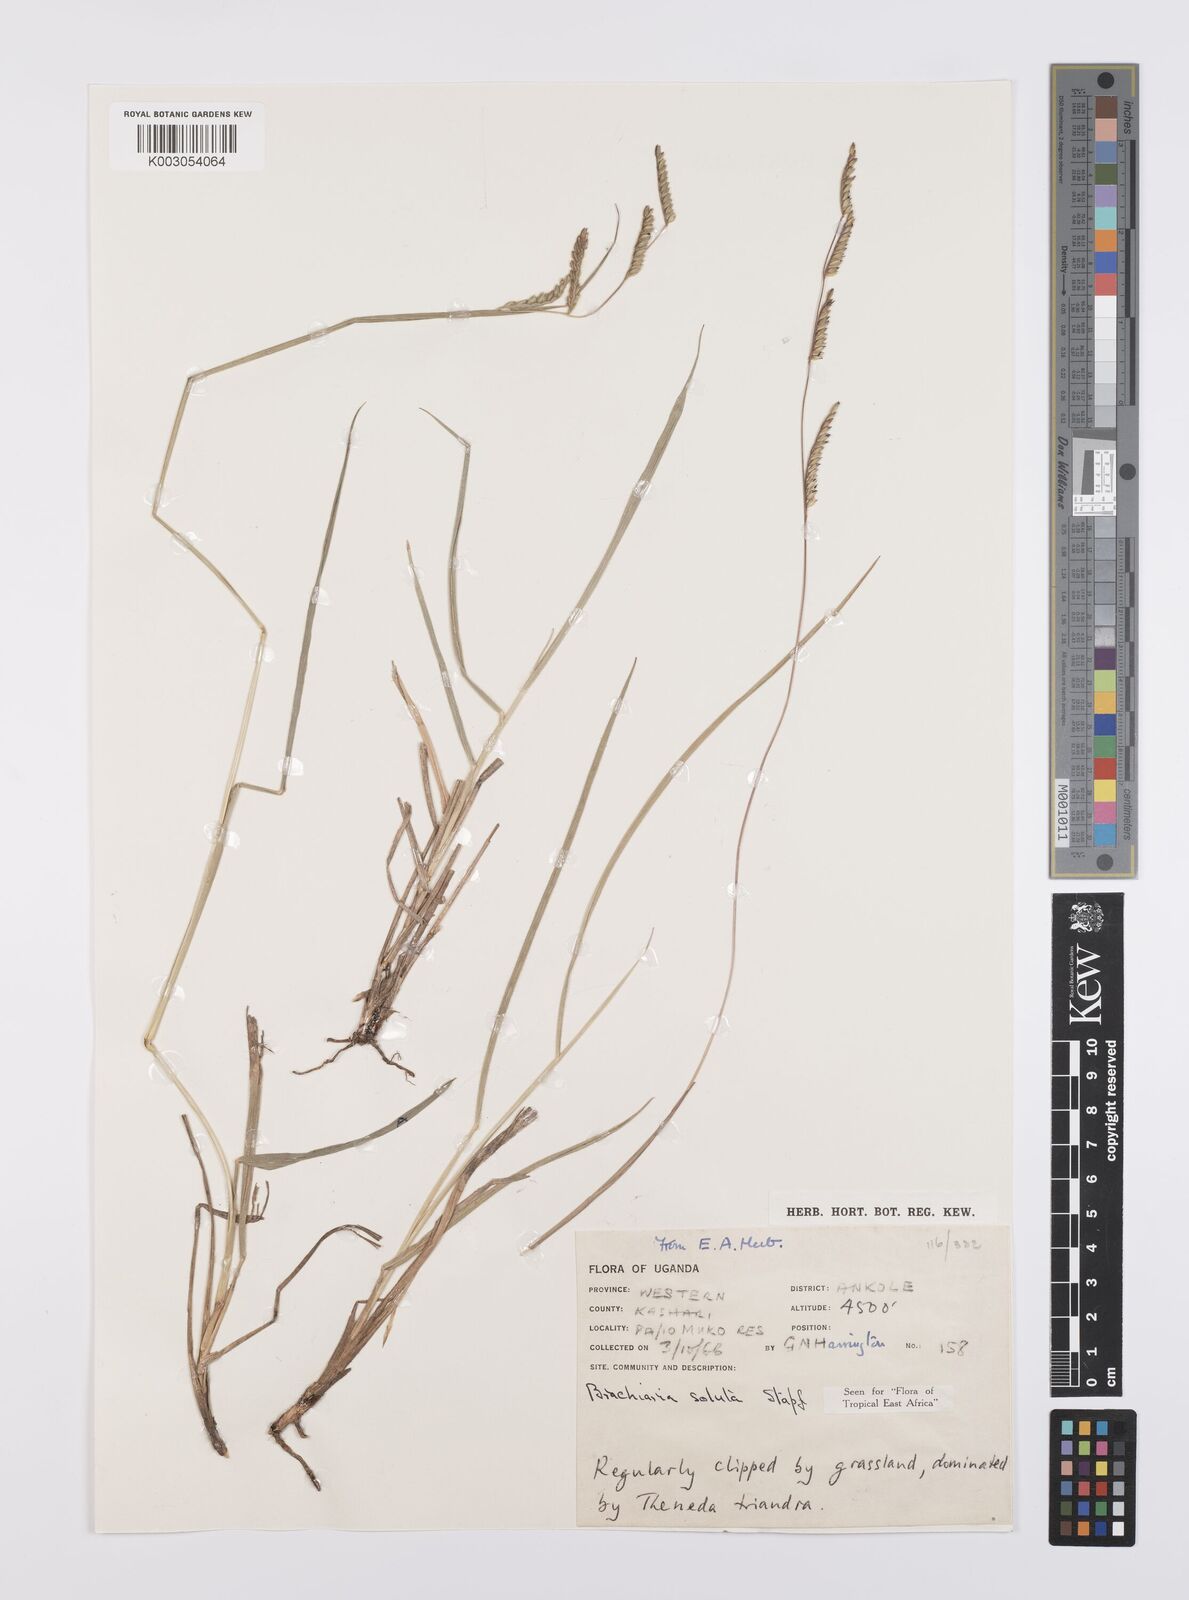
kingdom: Plantae
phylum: Tracheophyta
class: Liliopsida
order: Poales
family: Poaceae
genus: Urochloa
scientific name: Urochloa jubata
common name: Buffalograss
